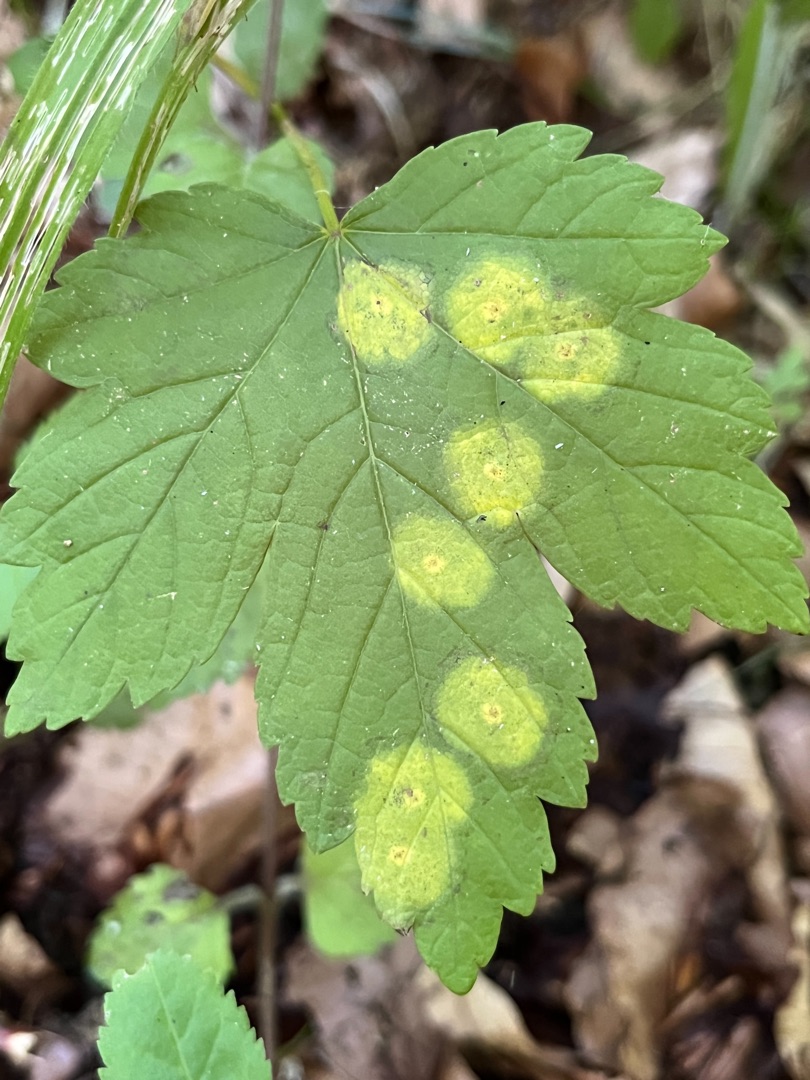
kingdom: Animalia
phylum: Arthropoda
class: Insecta
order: Diptera
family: Cecidomyiidae
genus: Drisina
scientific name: Drisina glutinosa
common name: Ahornblistgalmyg
